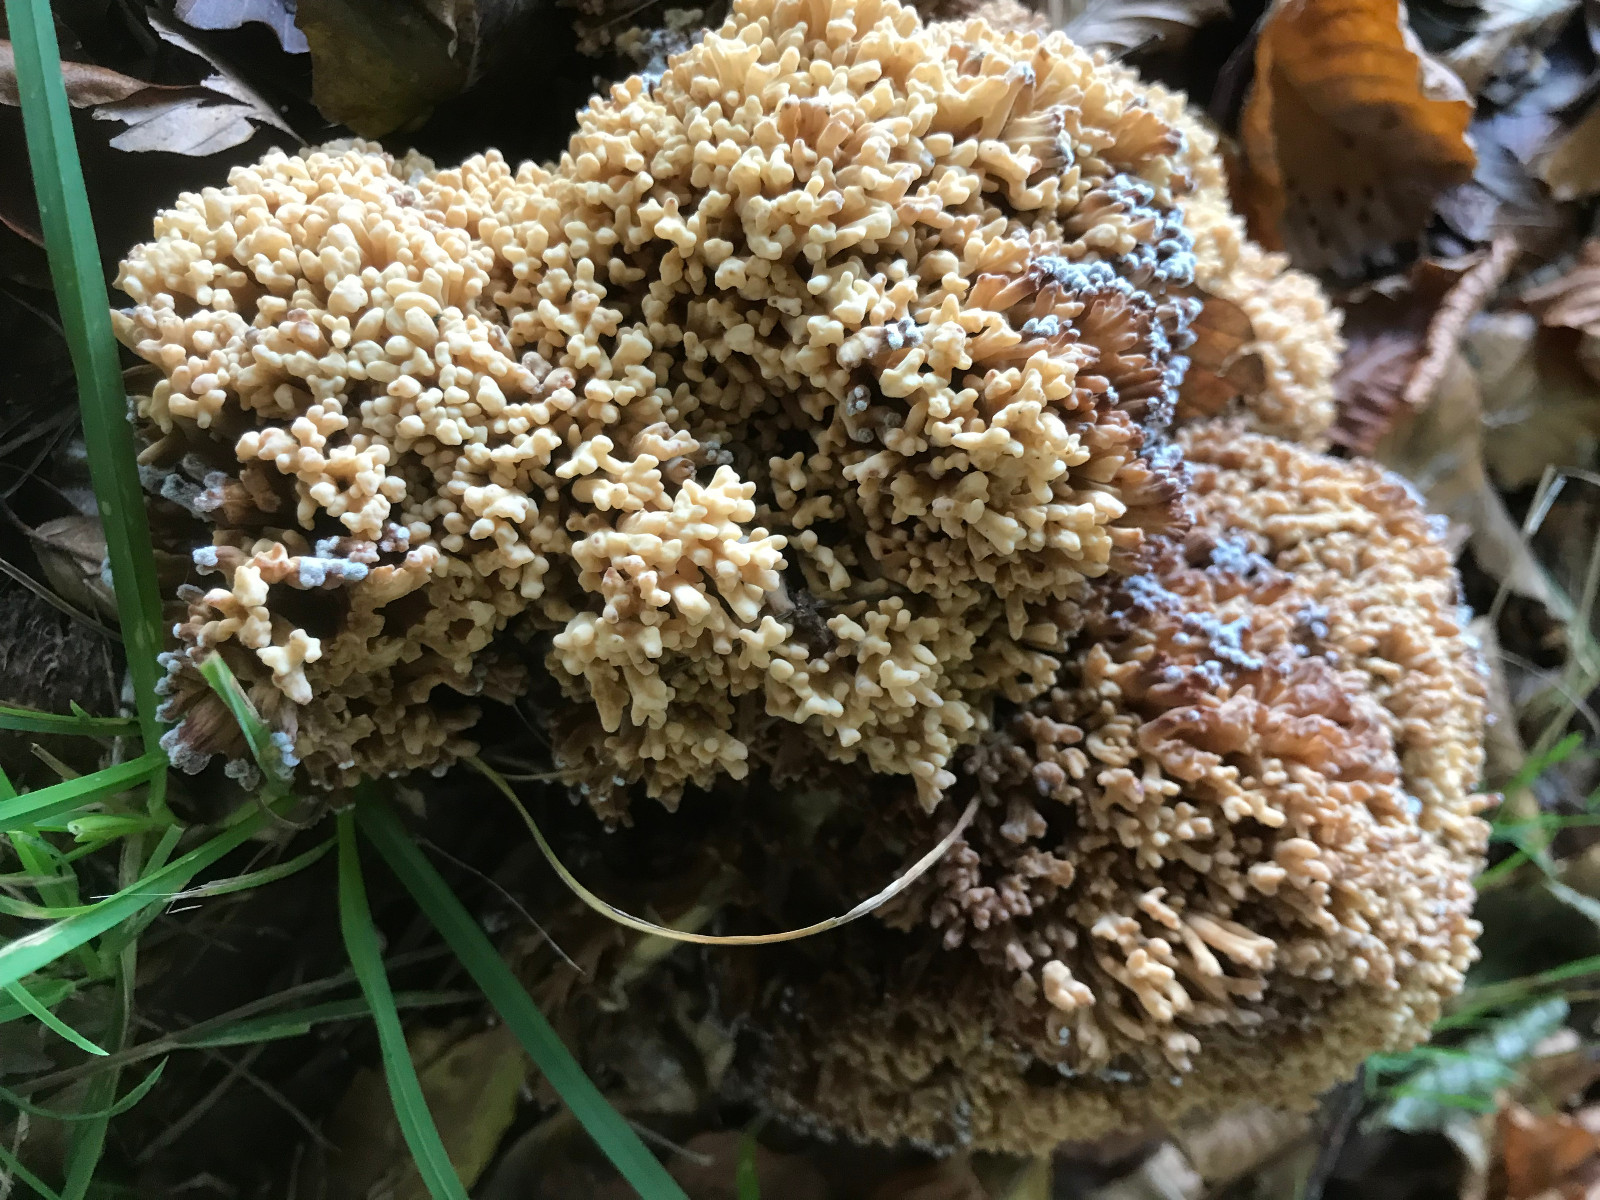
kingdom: Fungi
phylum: Basidiomycota
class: Agaricomycetes
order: Gomphales
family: Gomphaceae
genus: Ramaria
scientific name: Ramaria
